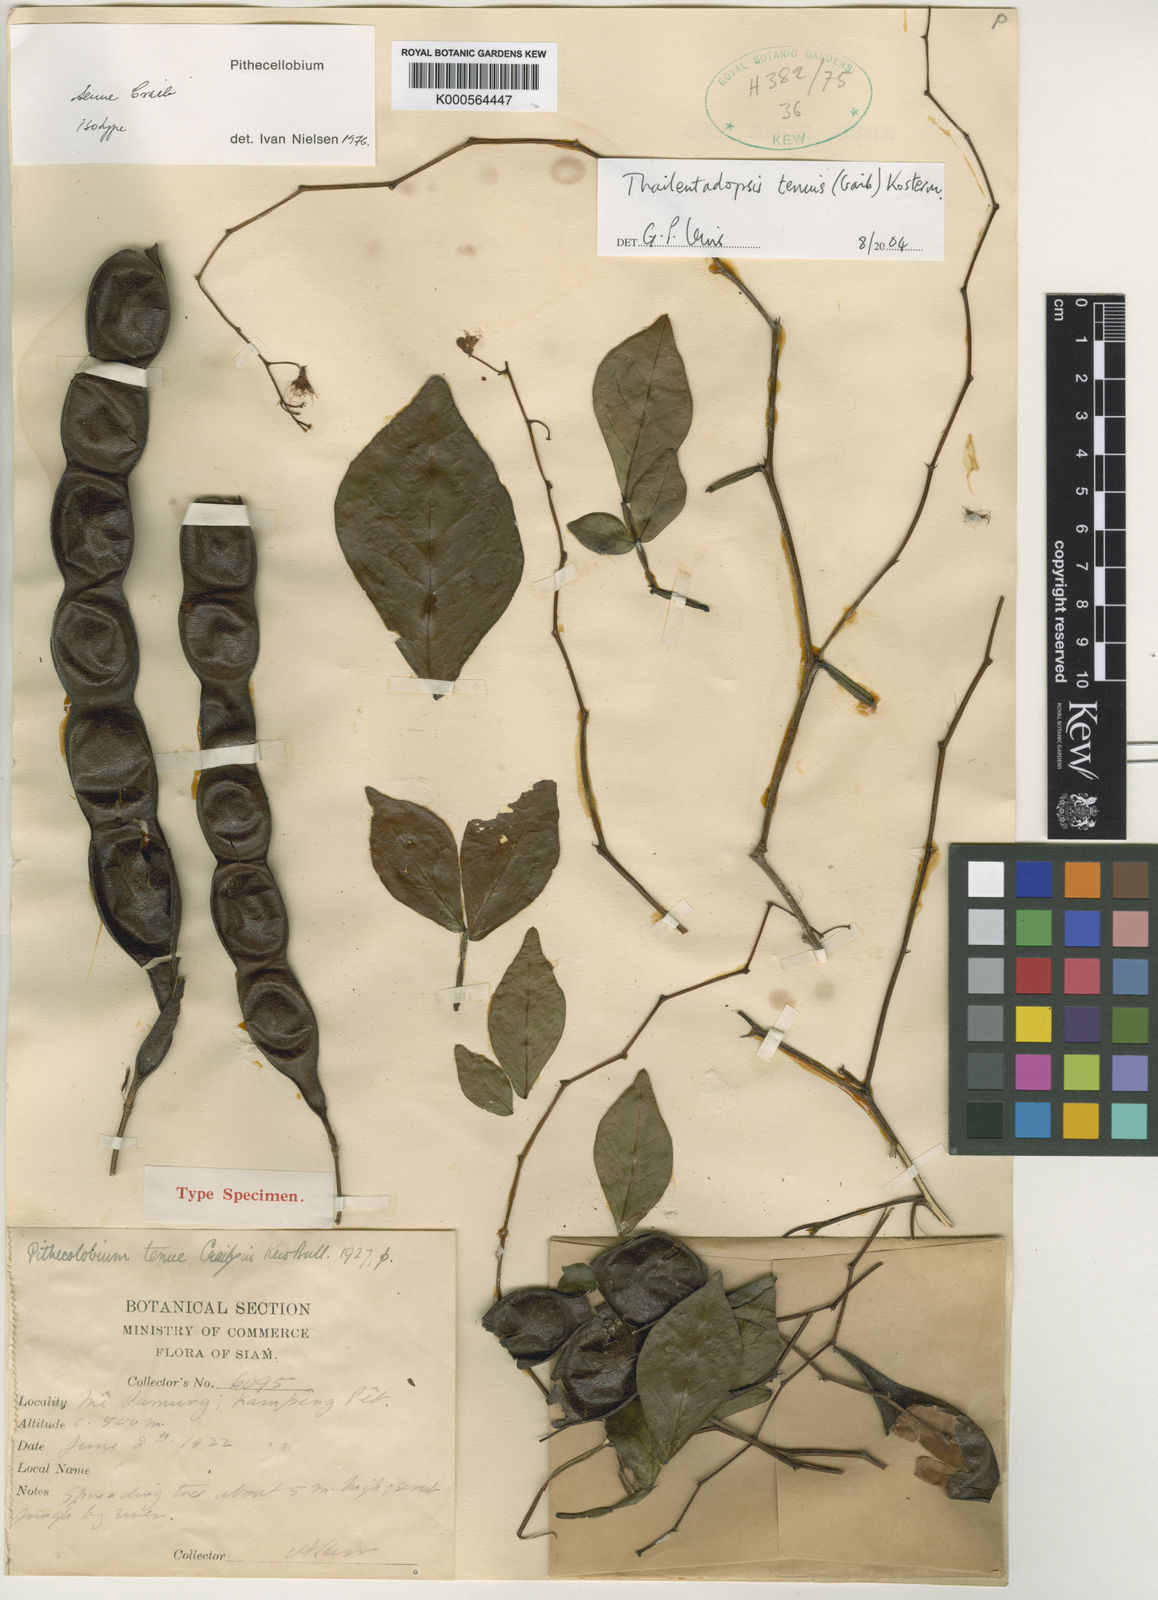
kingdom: Plantae
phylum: Tracheophyta
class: Magnoliopsida
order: Fabales
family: Fabaceae
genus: Thailentadopsis
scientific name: Thailentadopsis tenuis
